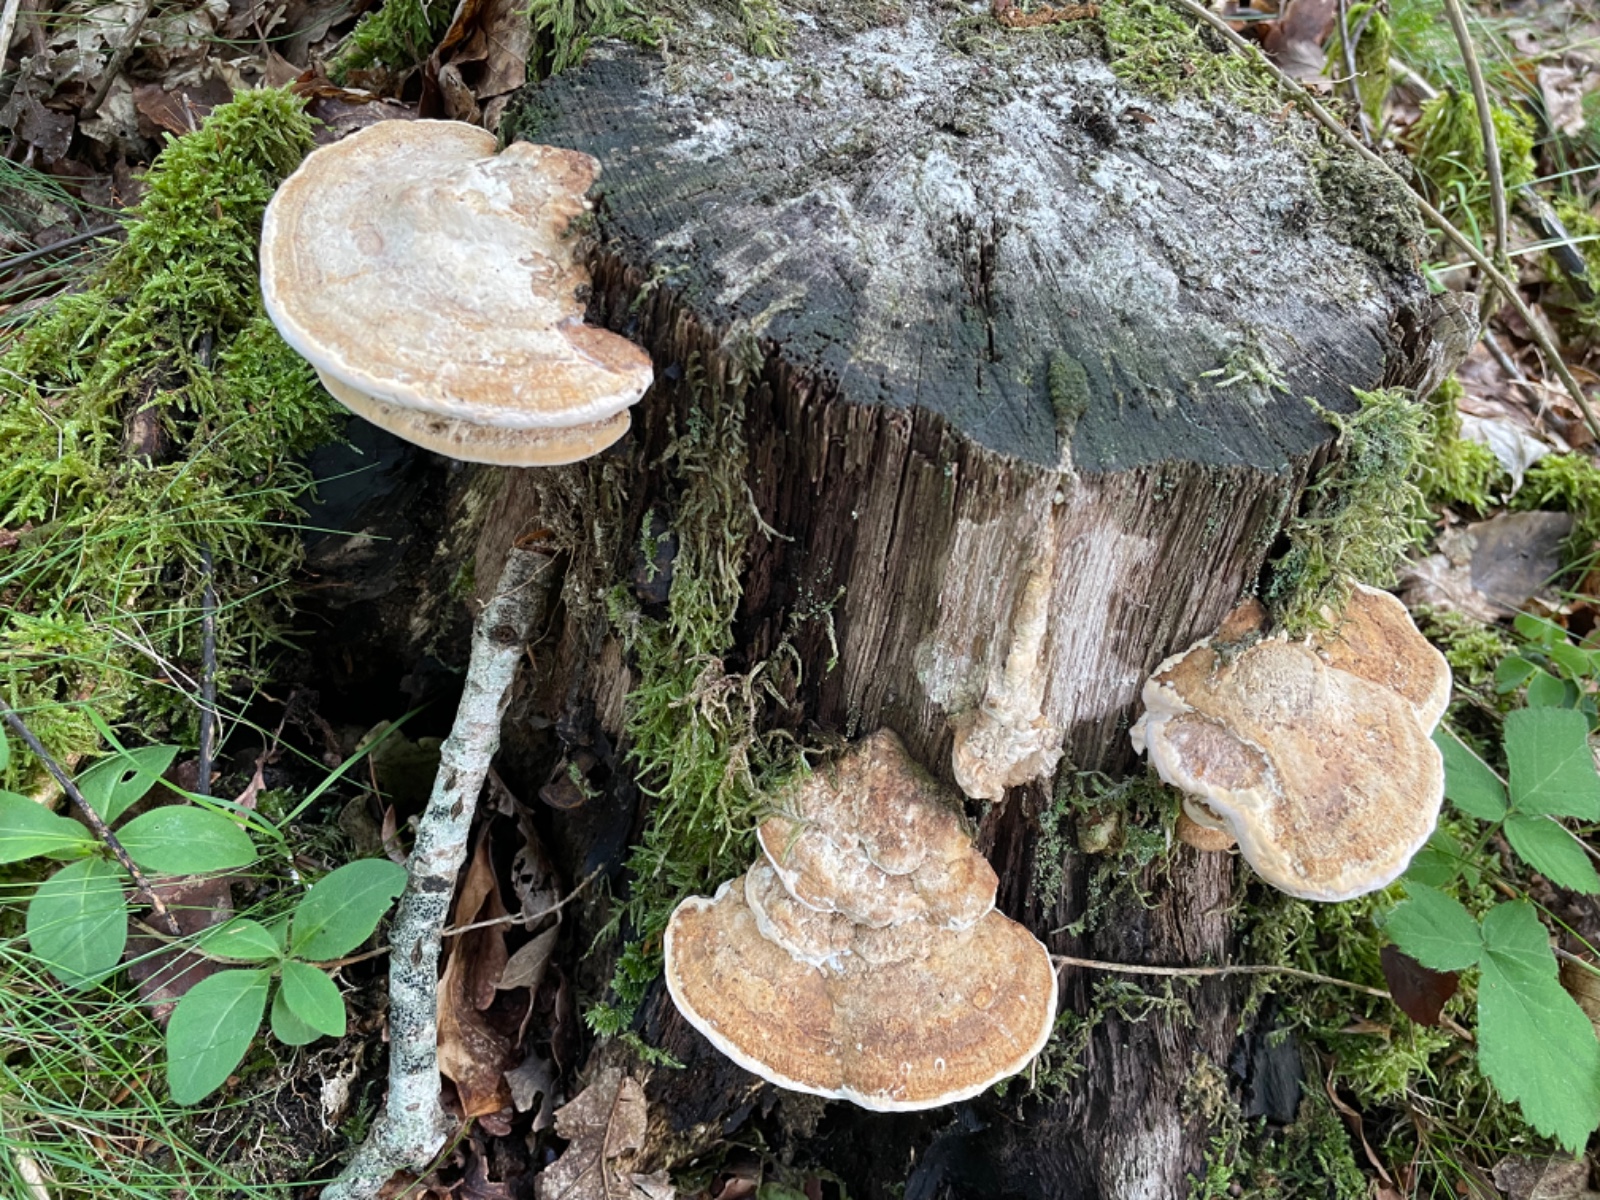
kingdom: Fungi
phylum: Basidiomycota
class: Agaricomycetes
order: Polyporales
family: Fomitopsidaceae
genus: Daedalea
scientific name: Daedalea quercina
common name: ege-labyrintsvamp
